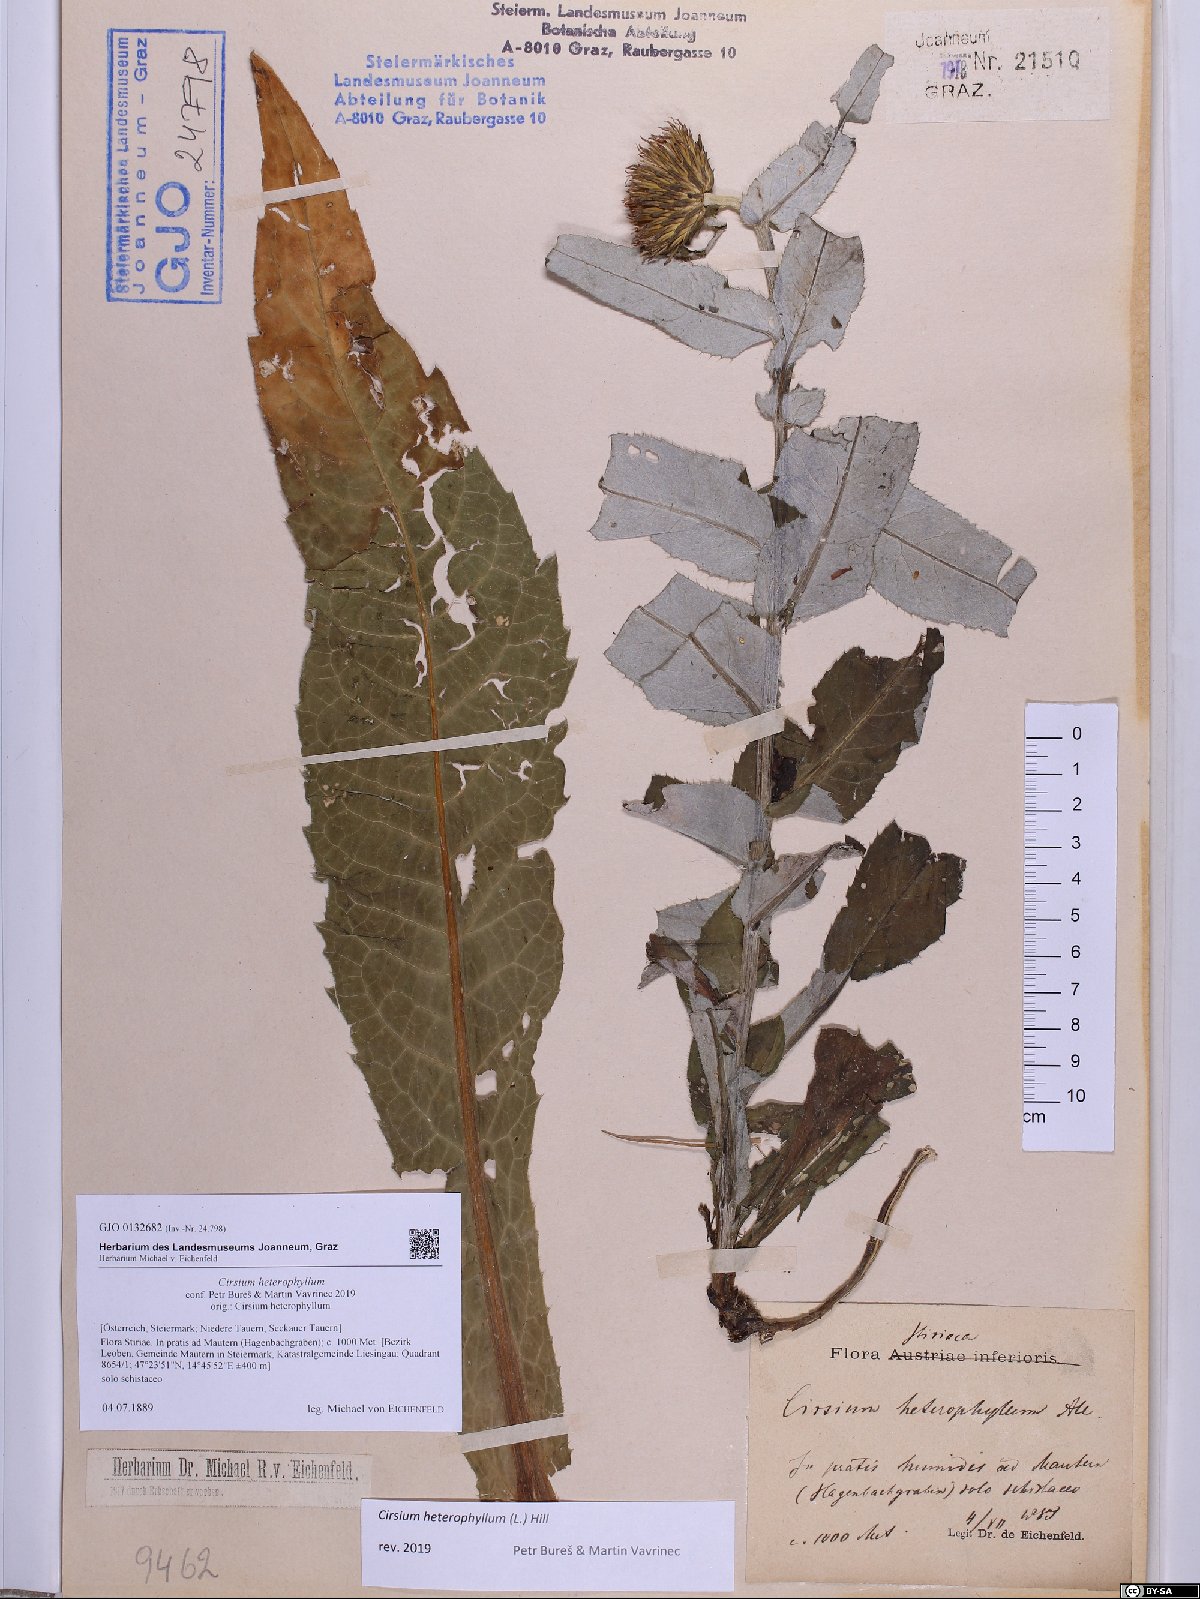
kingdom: Plantae
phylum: Tracheophyta
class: Magnoliopsida
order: Asterales
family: Asteraceae
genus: Cirsium
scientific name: Cirsium heterophyllum
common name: Melancholy thistle
